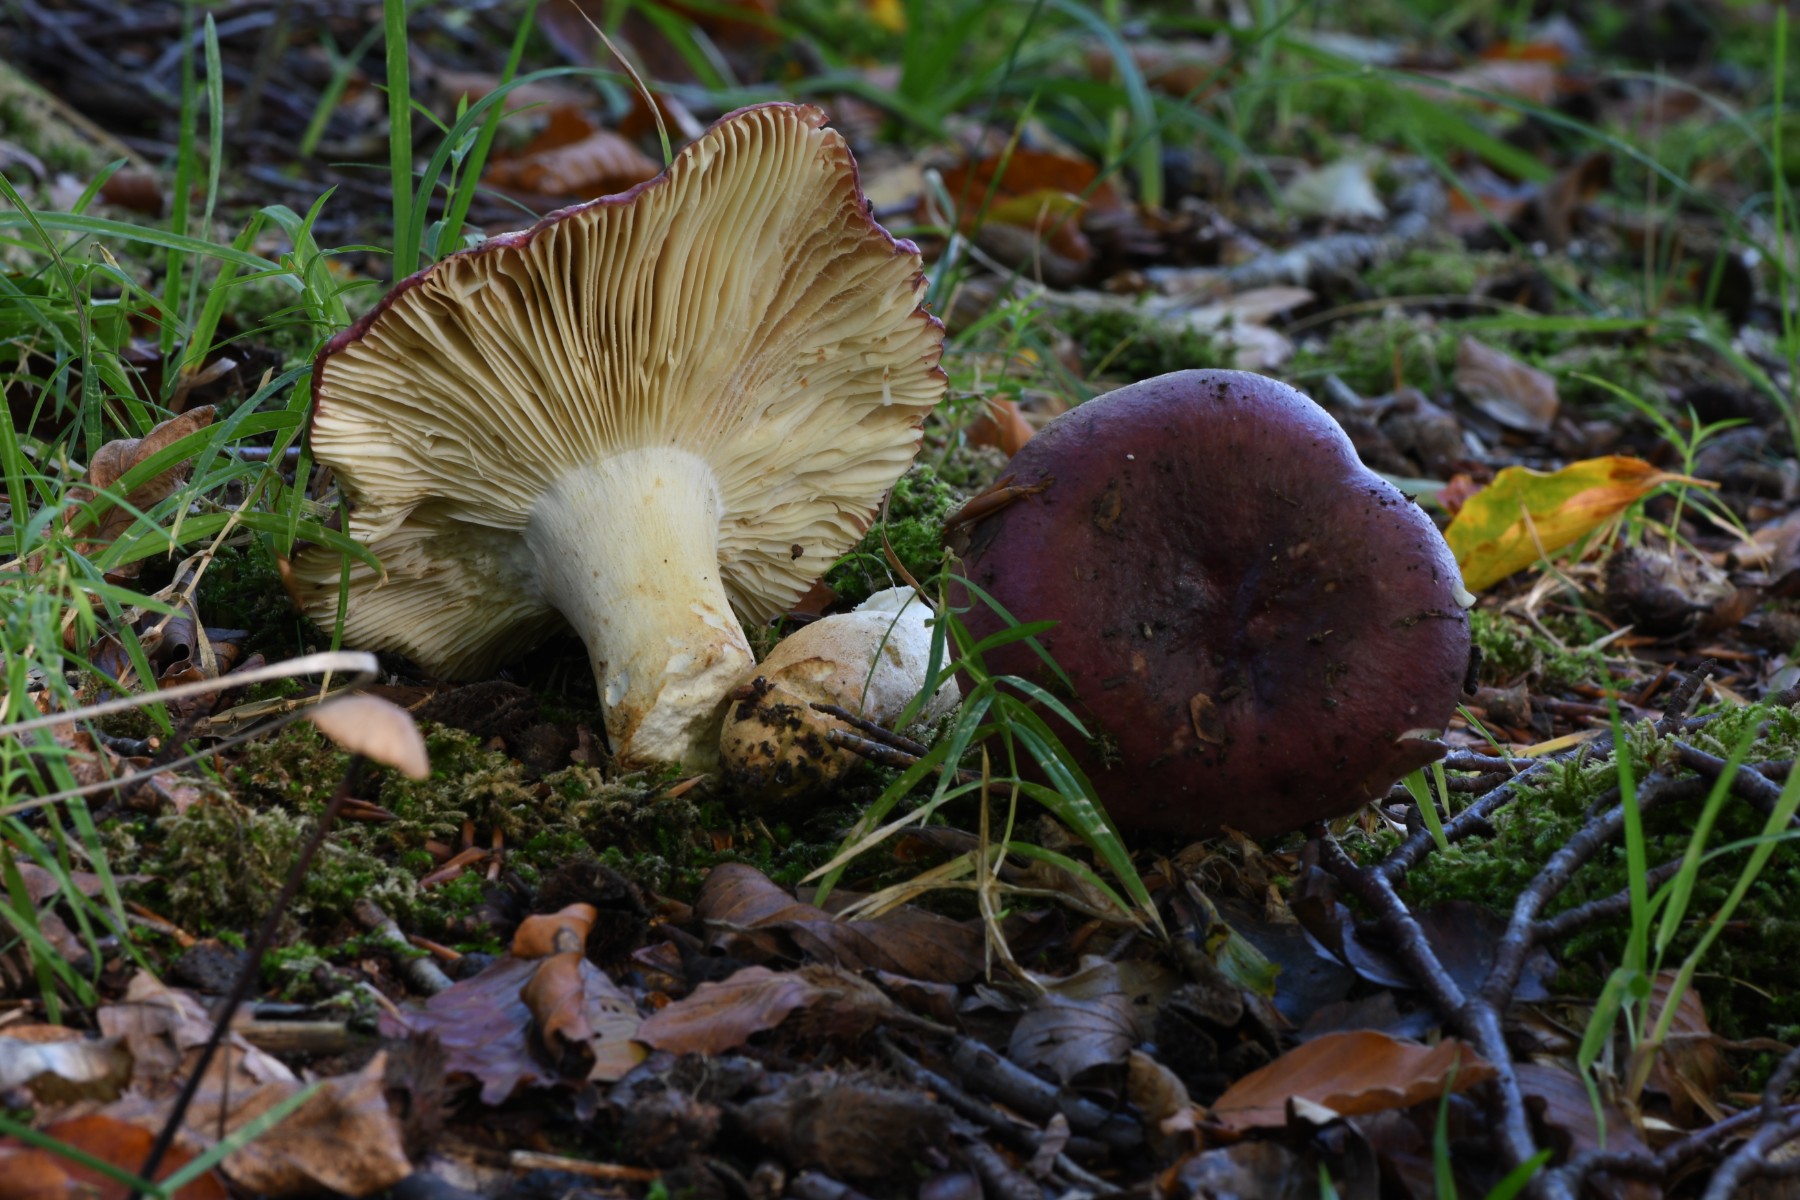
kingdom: Fungi
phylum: Basidiomycota
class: Agaricomycetes
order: Russulales
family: Russulaceae
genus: Russula
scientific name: Russula
